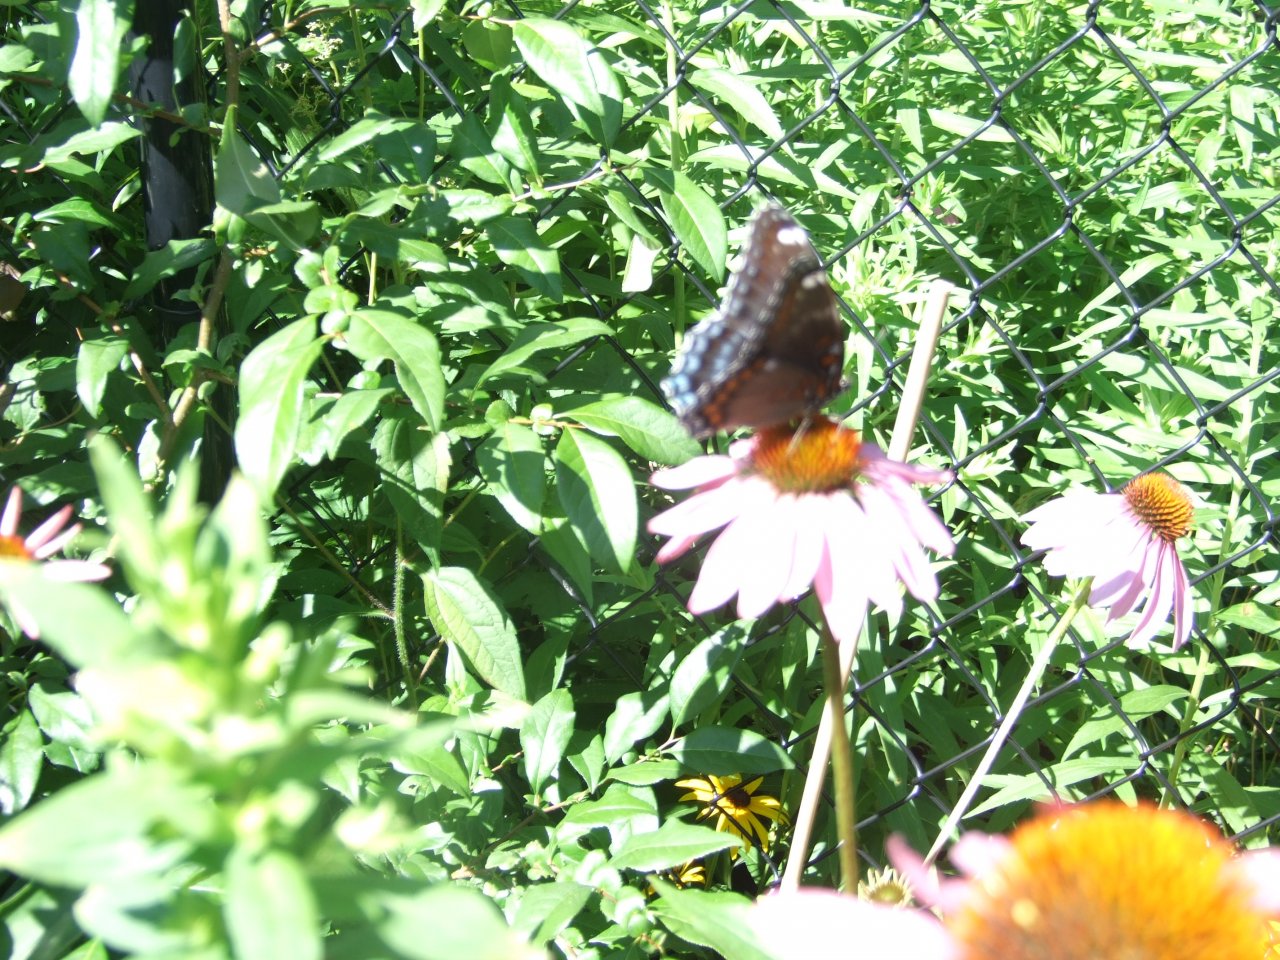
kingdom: Animalia
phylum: Arthropoda
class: Insecta
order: Lepidoptera
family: Nymphalidae
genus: Limenitis
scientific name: Limenitis astyanax
